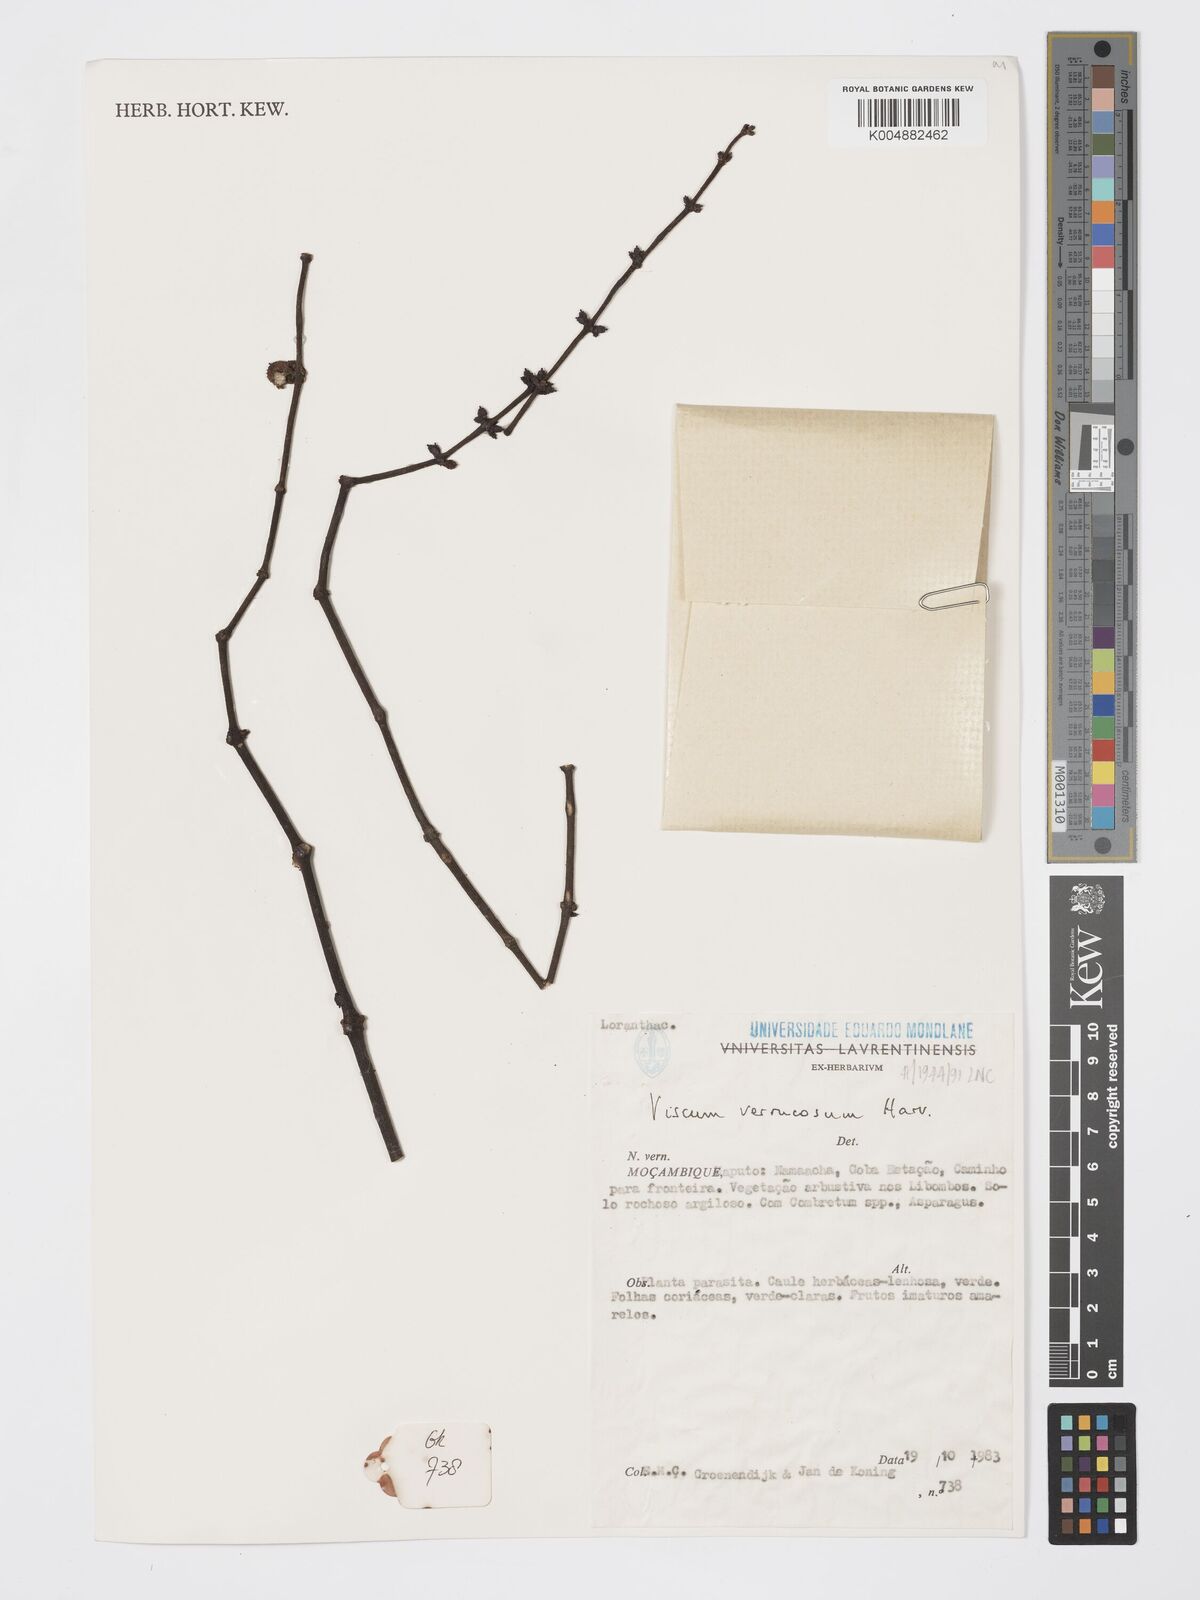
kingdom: Plantae
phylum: Tracheophyta
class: Magnoliopsida
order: Santalales
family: Viscaceae
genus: Viscum
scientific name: Viscum verrucosum
